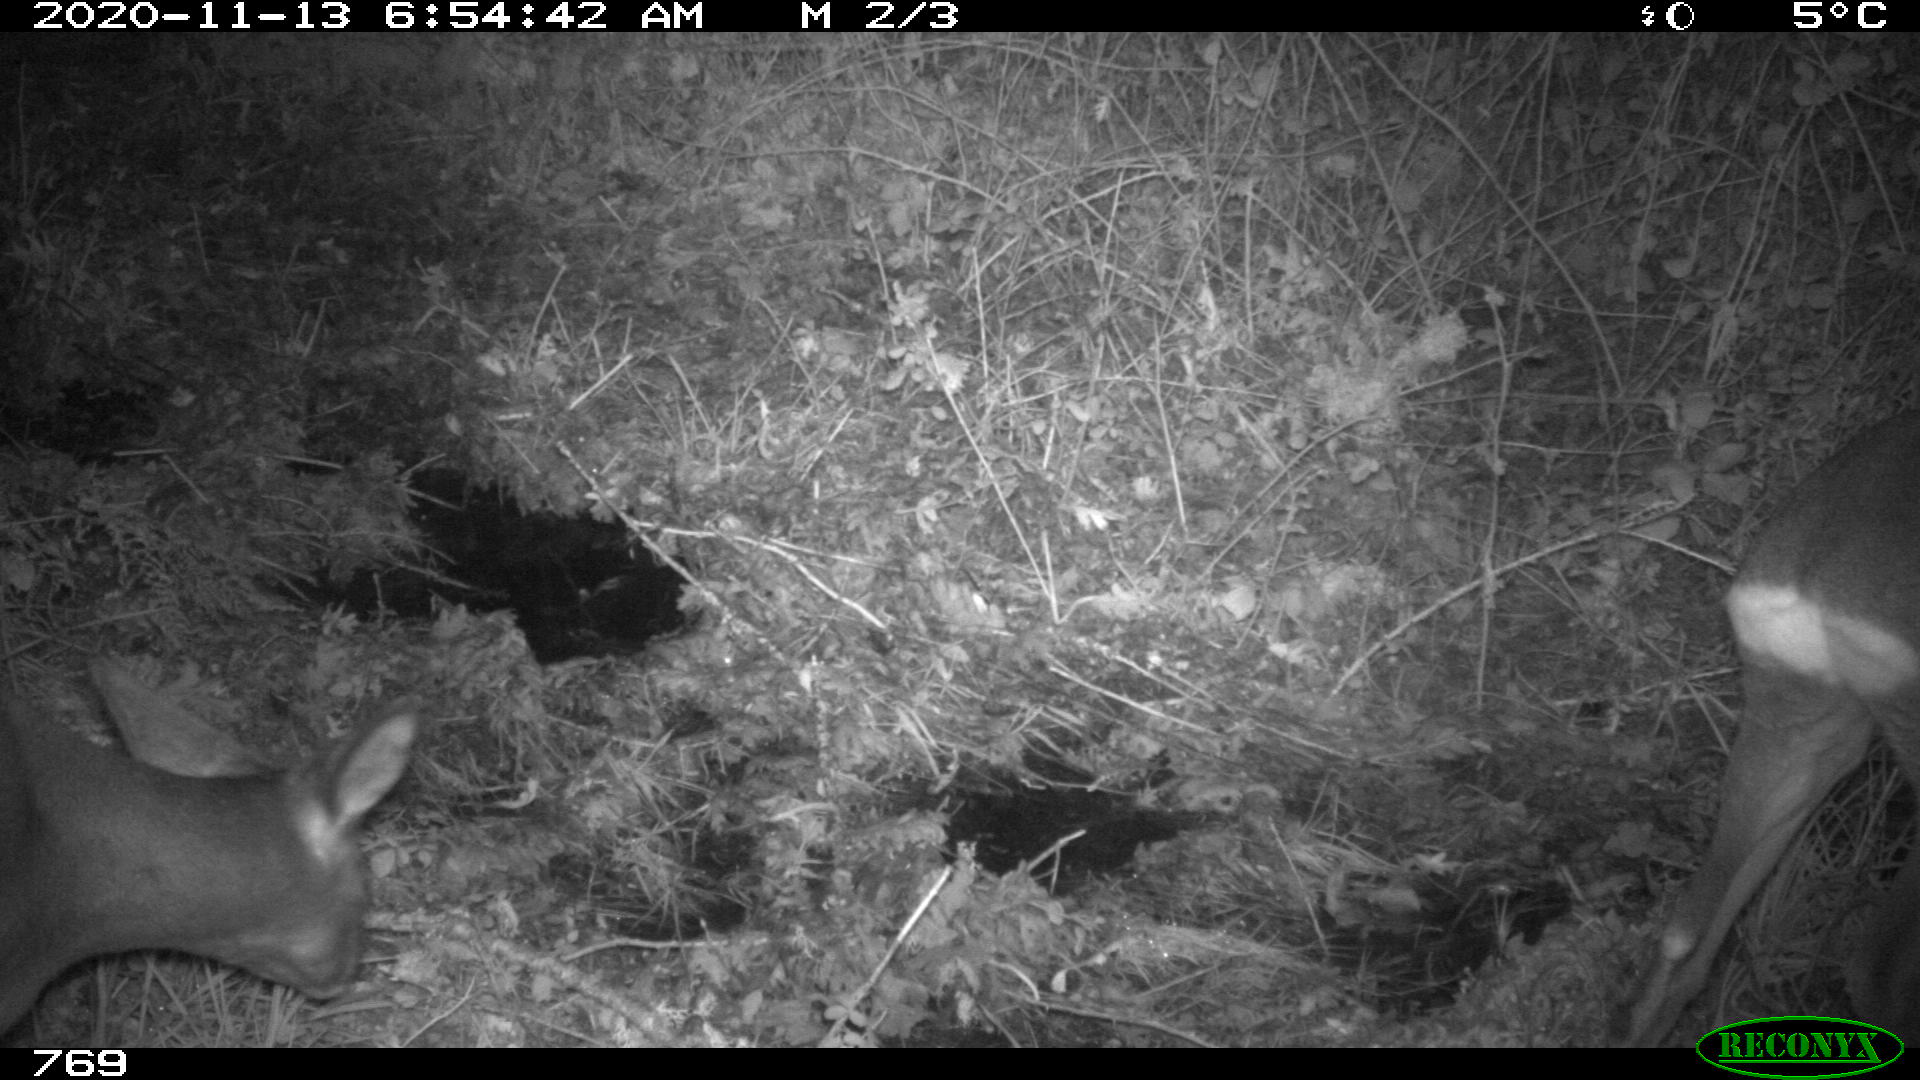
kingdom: Animalia
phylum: Chordata
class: Mammalia
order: Artiodactyla
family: Cervidae
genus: Capreolus
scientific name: Capreolus capreolus
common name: Western roe deer
